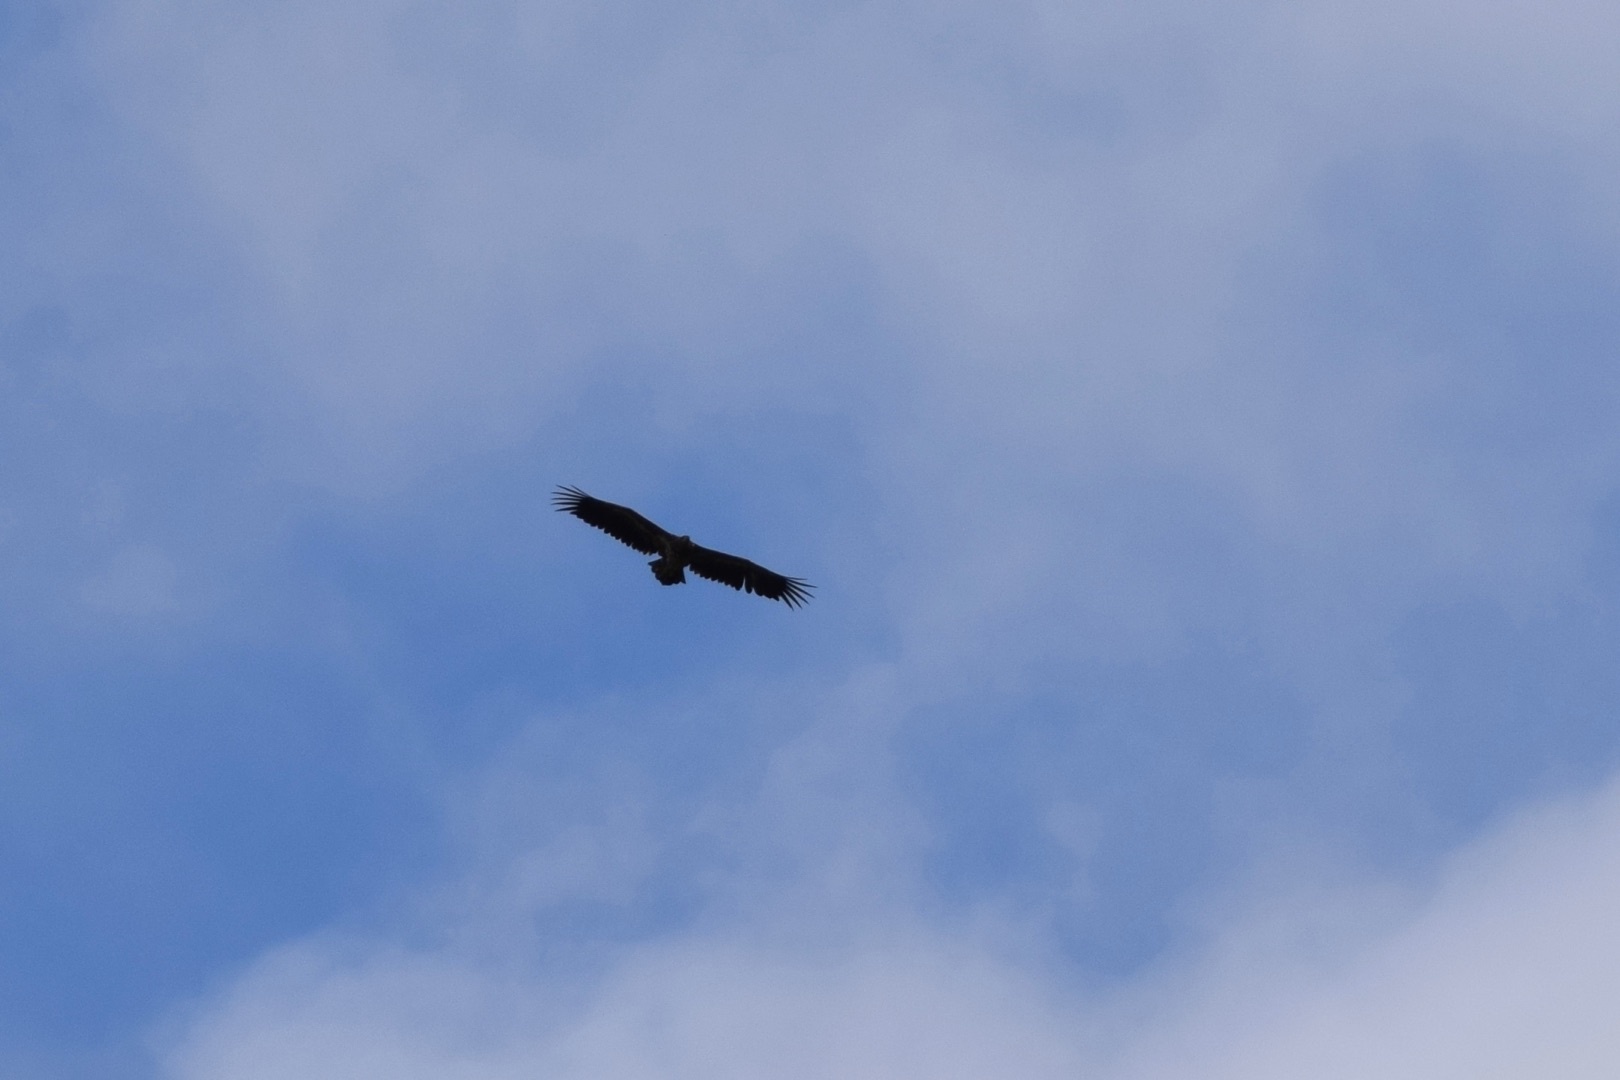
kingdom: Animalia
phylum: Chordata
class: Aves
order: Accipitriformes
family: Accipitridae
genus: Haliaeetus
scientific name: Haliaeetus albicilla
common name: Havørn
